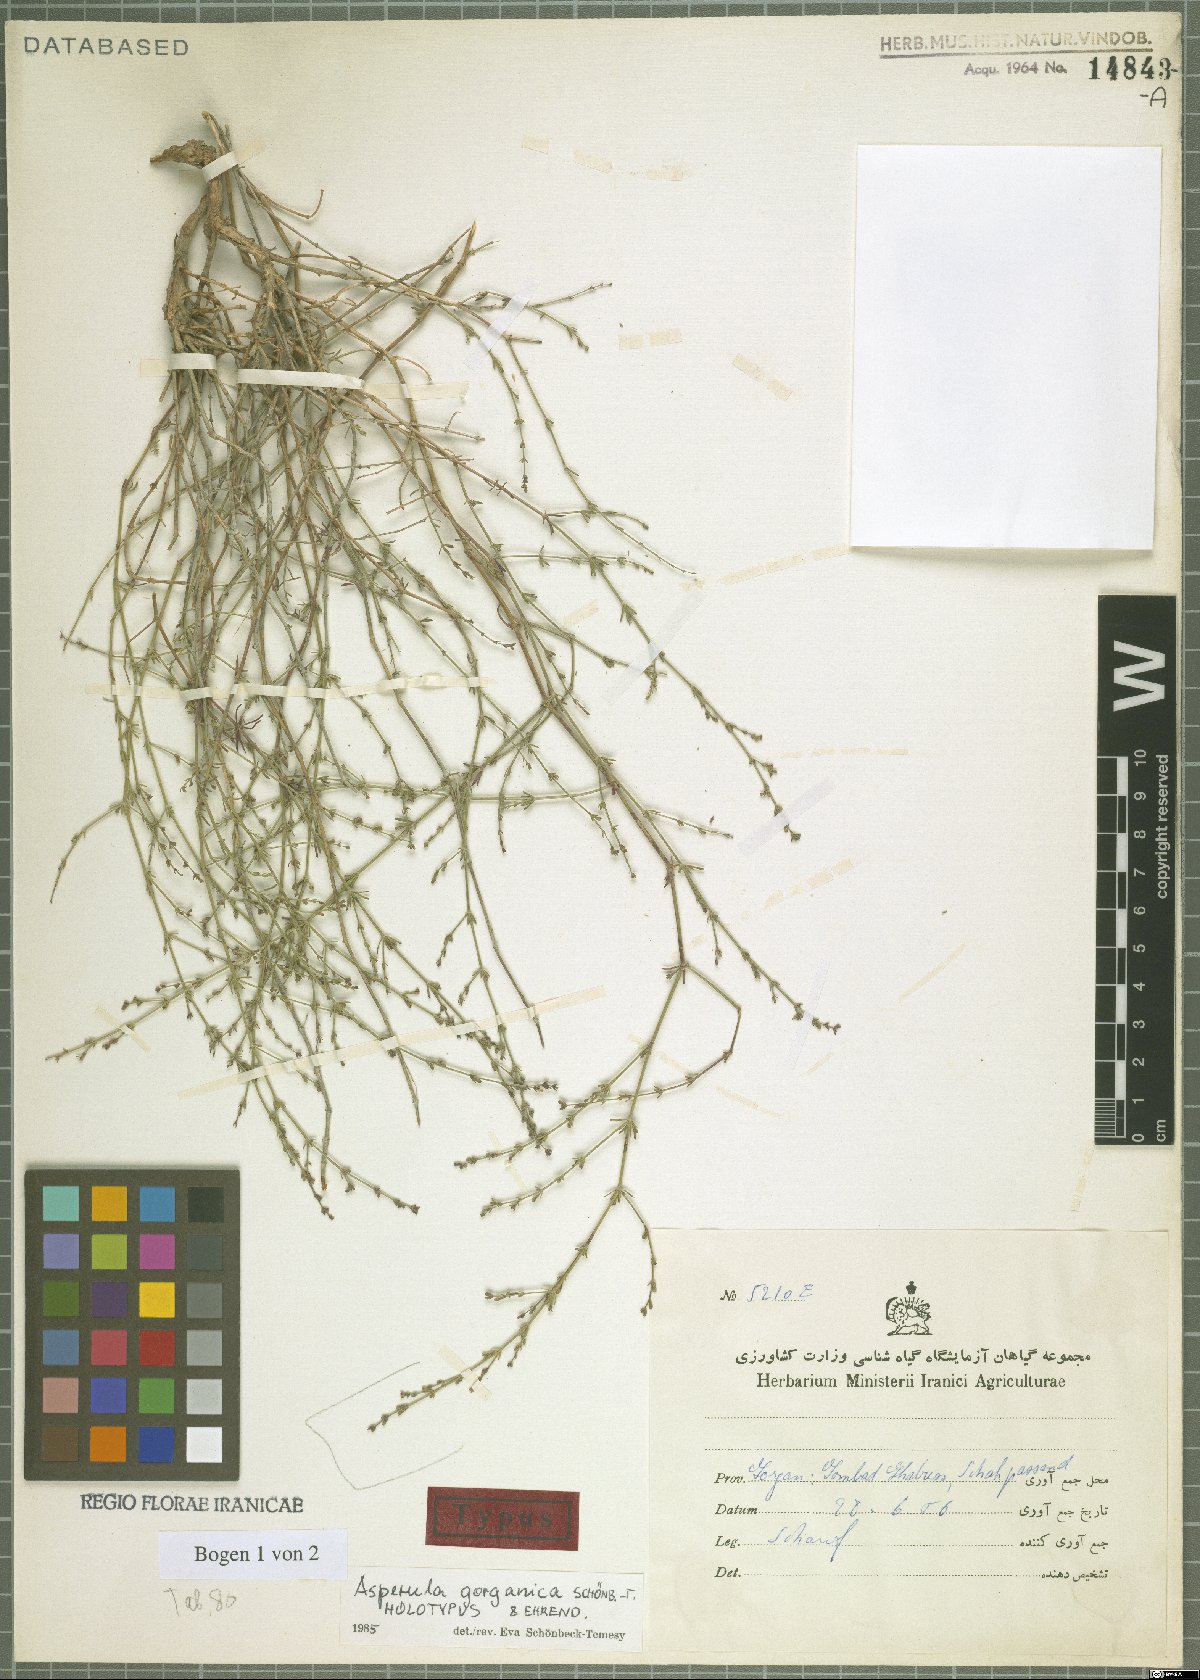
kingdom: Plantae
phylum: Tracheophyta
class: Magnoliopsida
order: Gentianales
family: Rubiaceae
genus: Thliphthisa
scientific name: Thliphthisa gorganica
